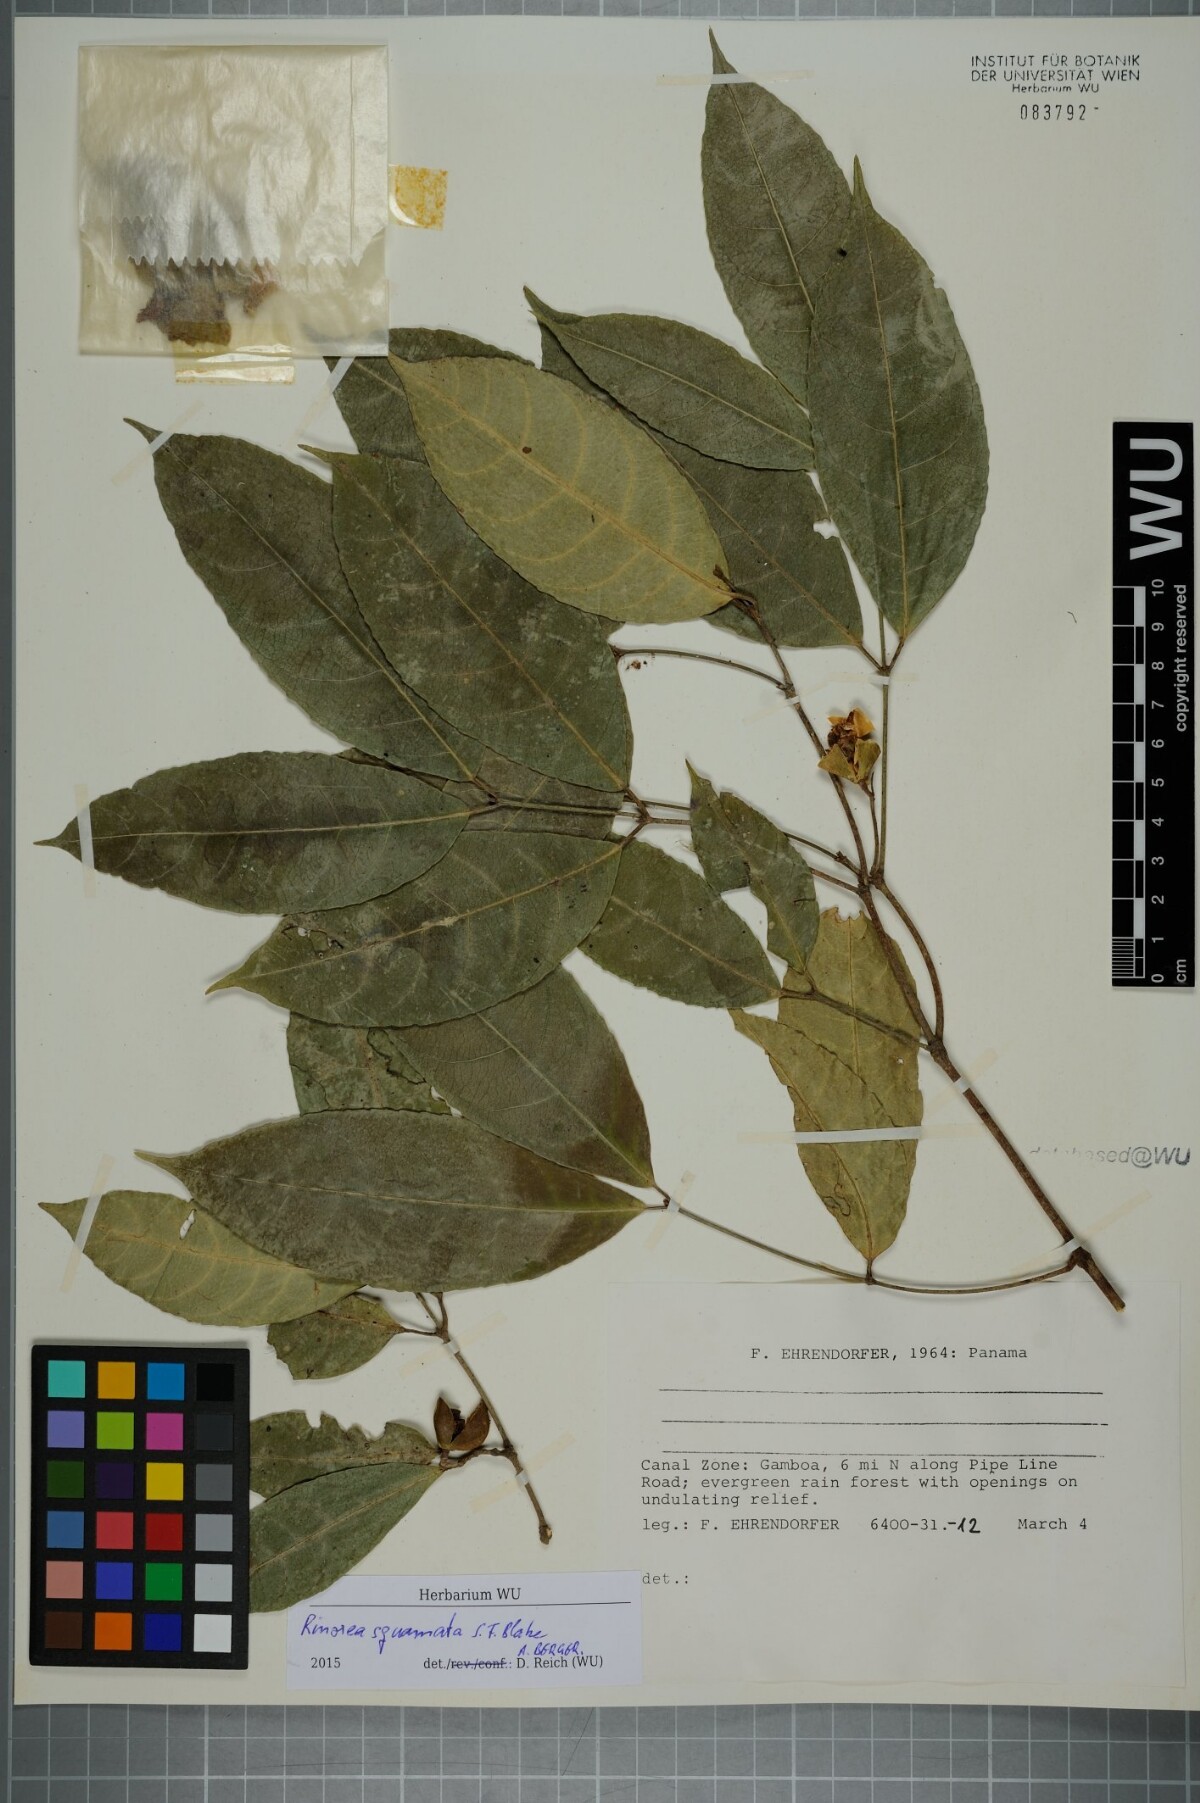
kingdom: Plantae
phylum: Tracheophyta
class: Magnoliopsida
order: Malpighiales
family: Violaceae
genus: Rinorea
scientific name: Rinorea squamata
